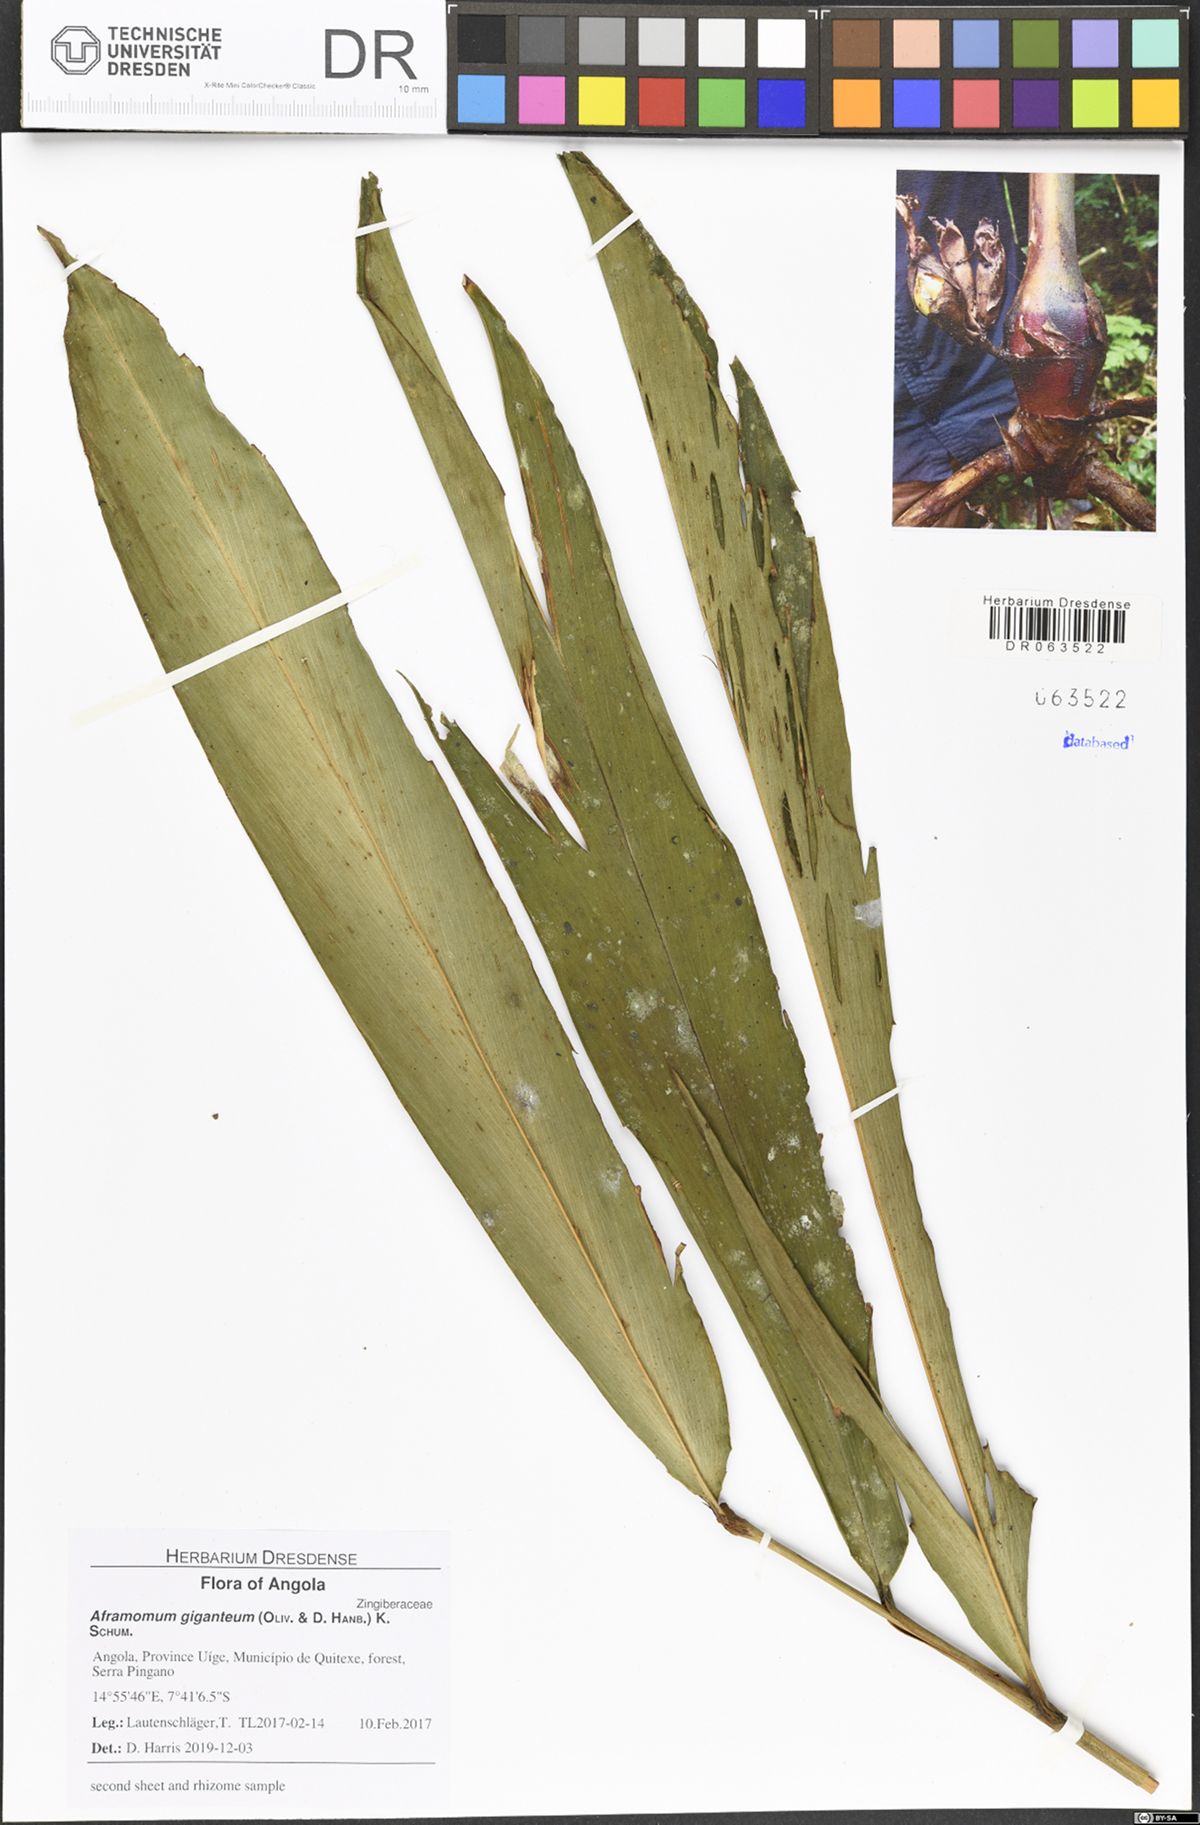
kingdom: Plantae
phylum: Tracheophyta
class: Liliopsida
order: Zingiberales
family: Zingiberaceae
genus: Aframomum
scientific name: Aframomum giganteum
